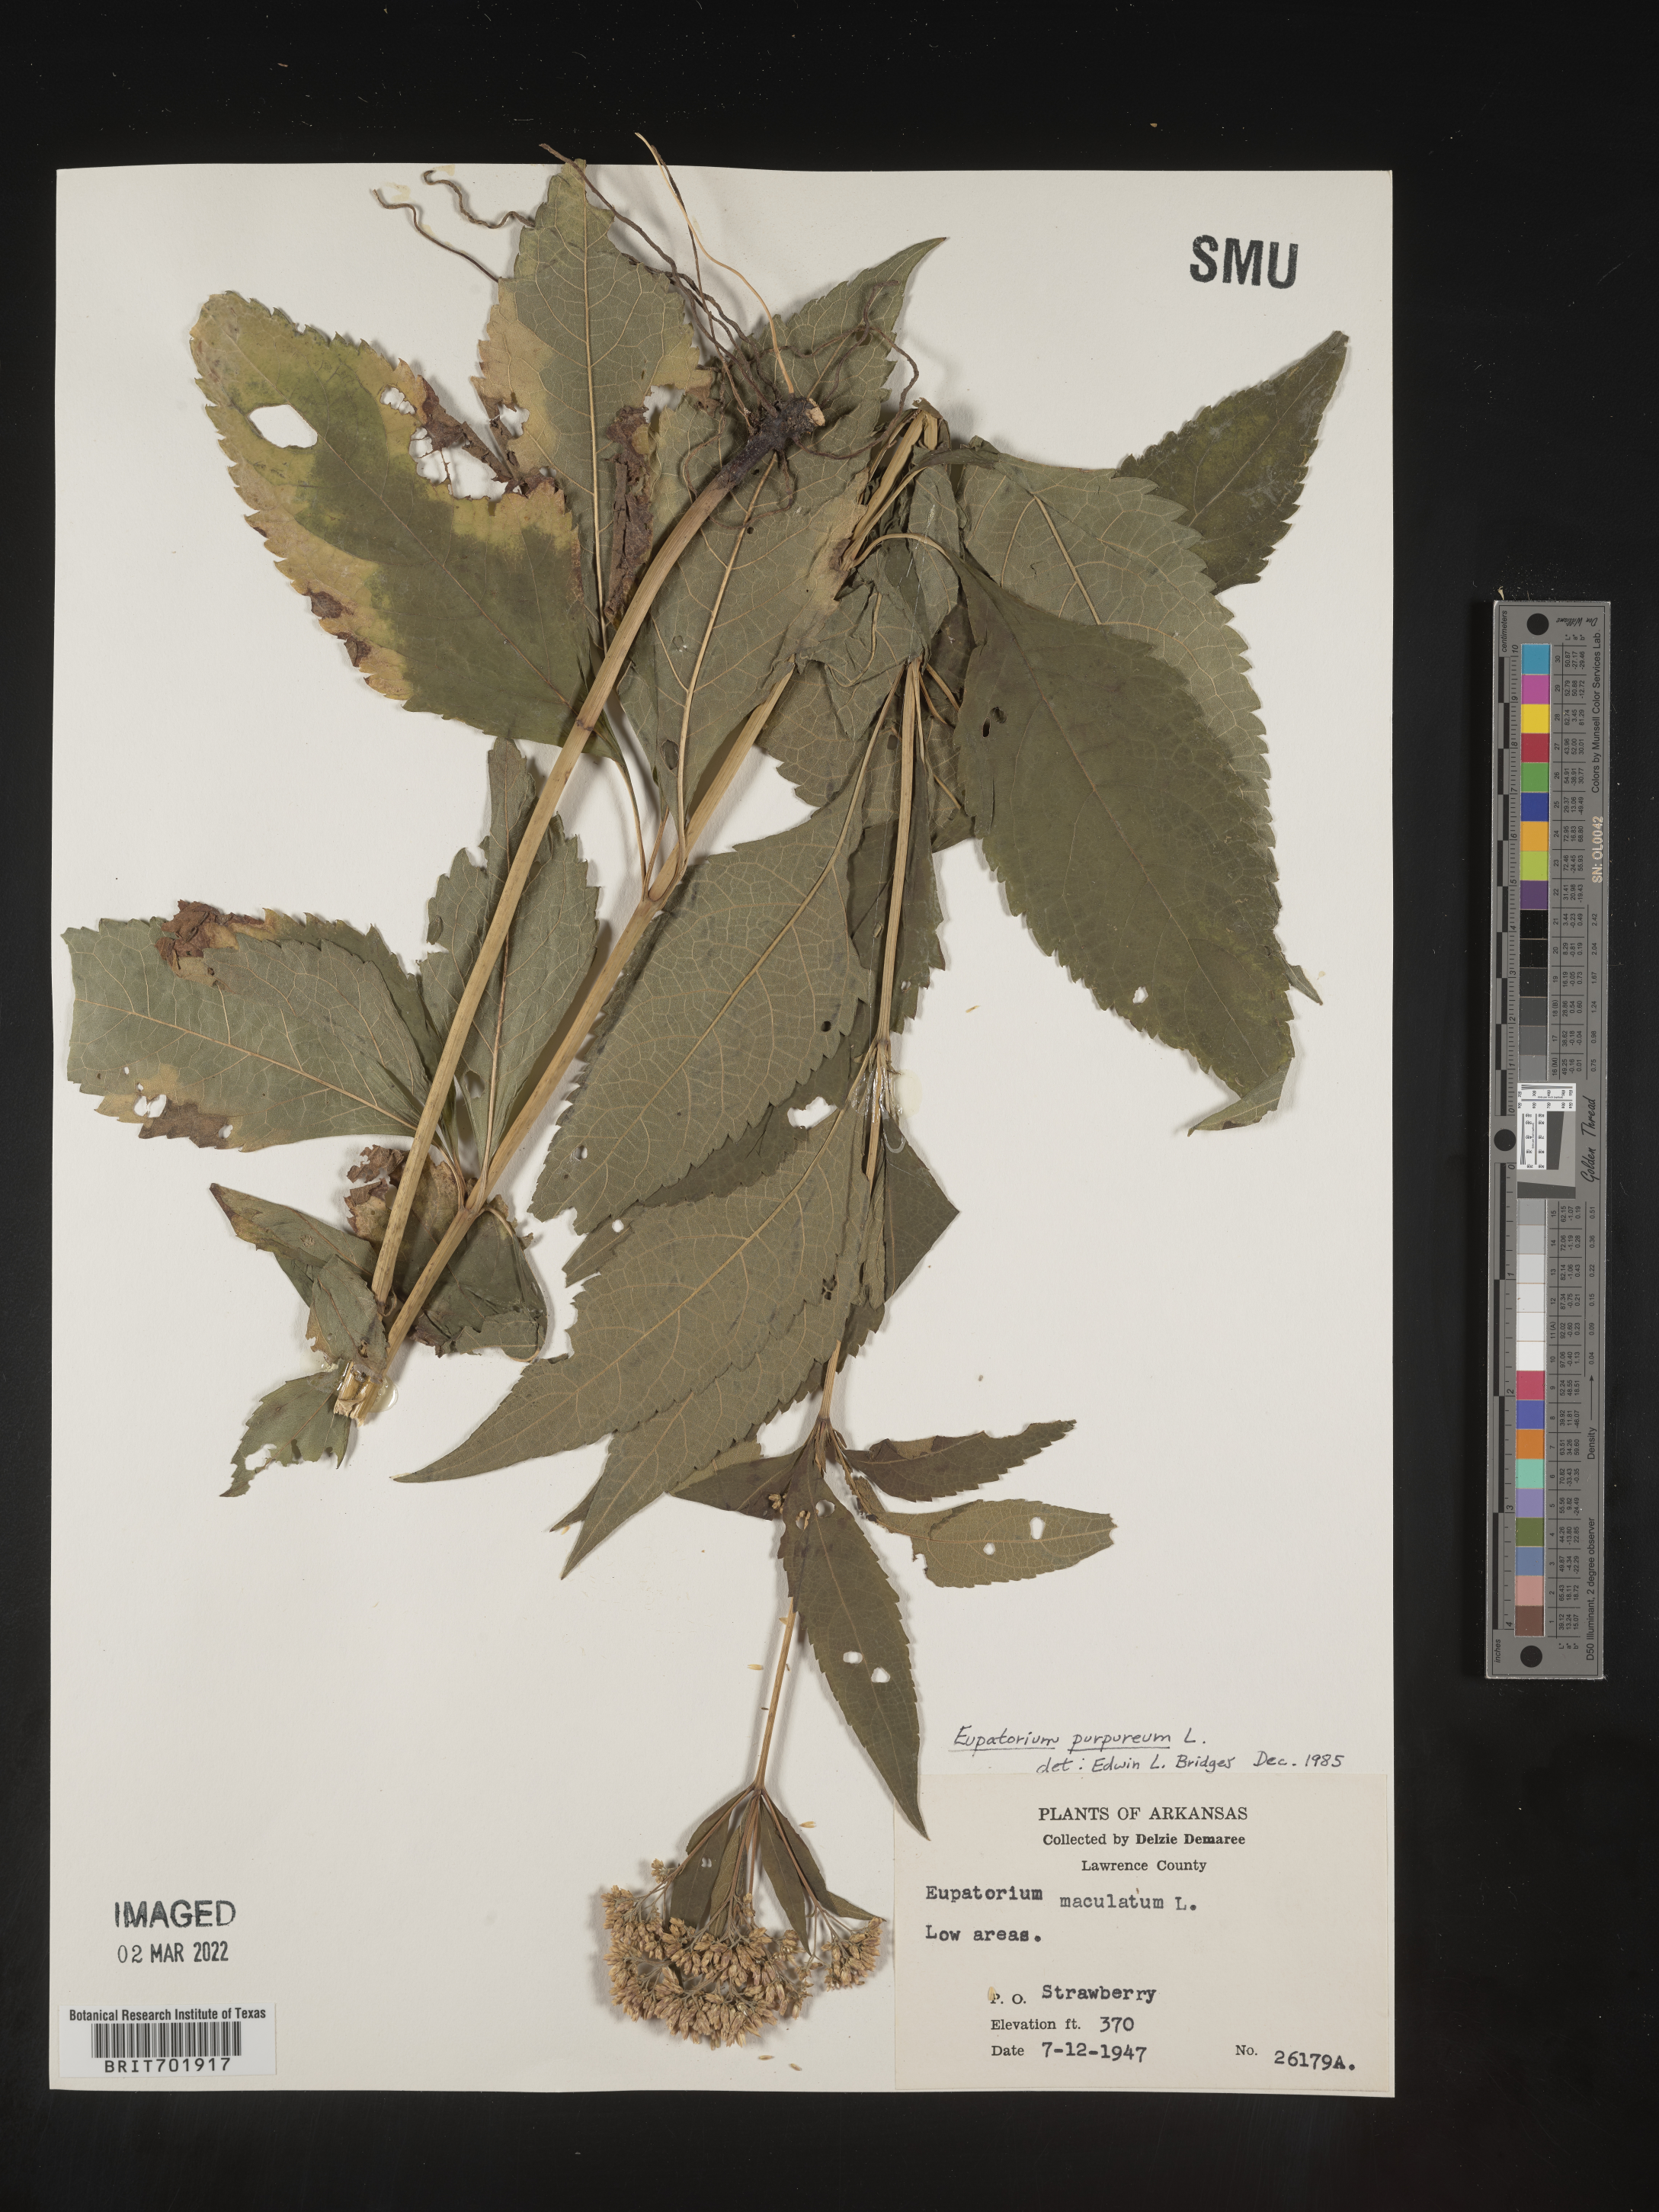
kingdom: Plantae
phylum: Tracheophyta
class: Magnoliopsida
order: Asterales
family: Asteraceae
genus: Eupatorium
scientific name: Eupatorium quaternum
